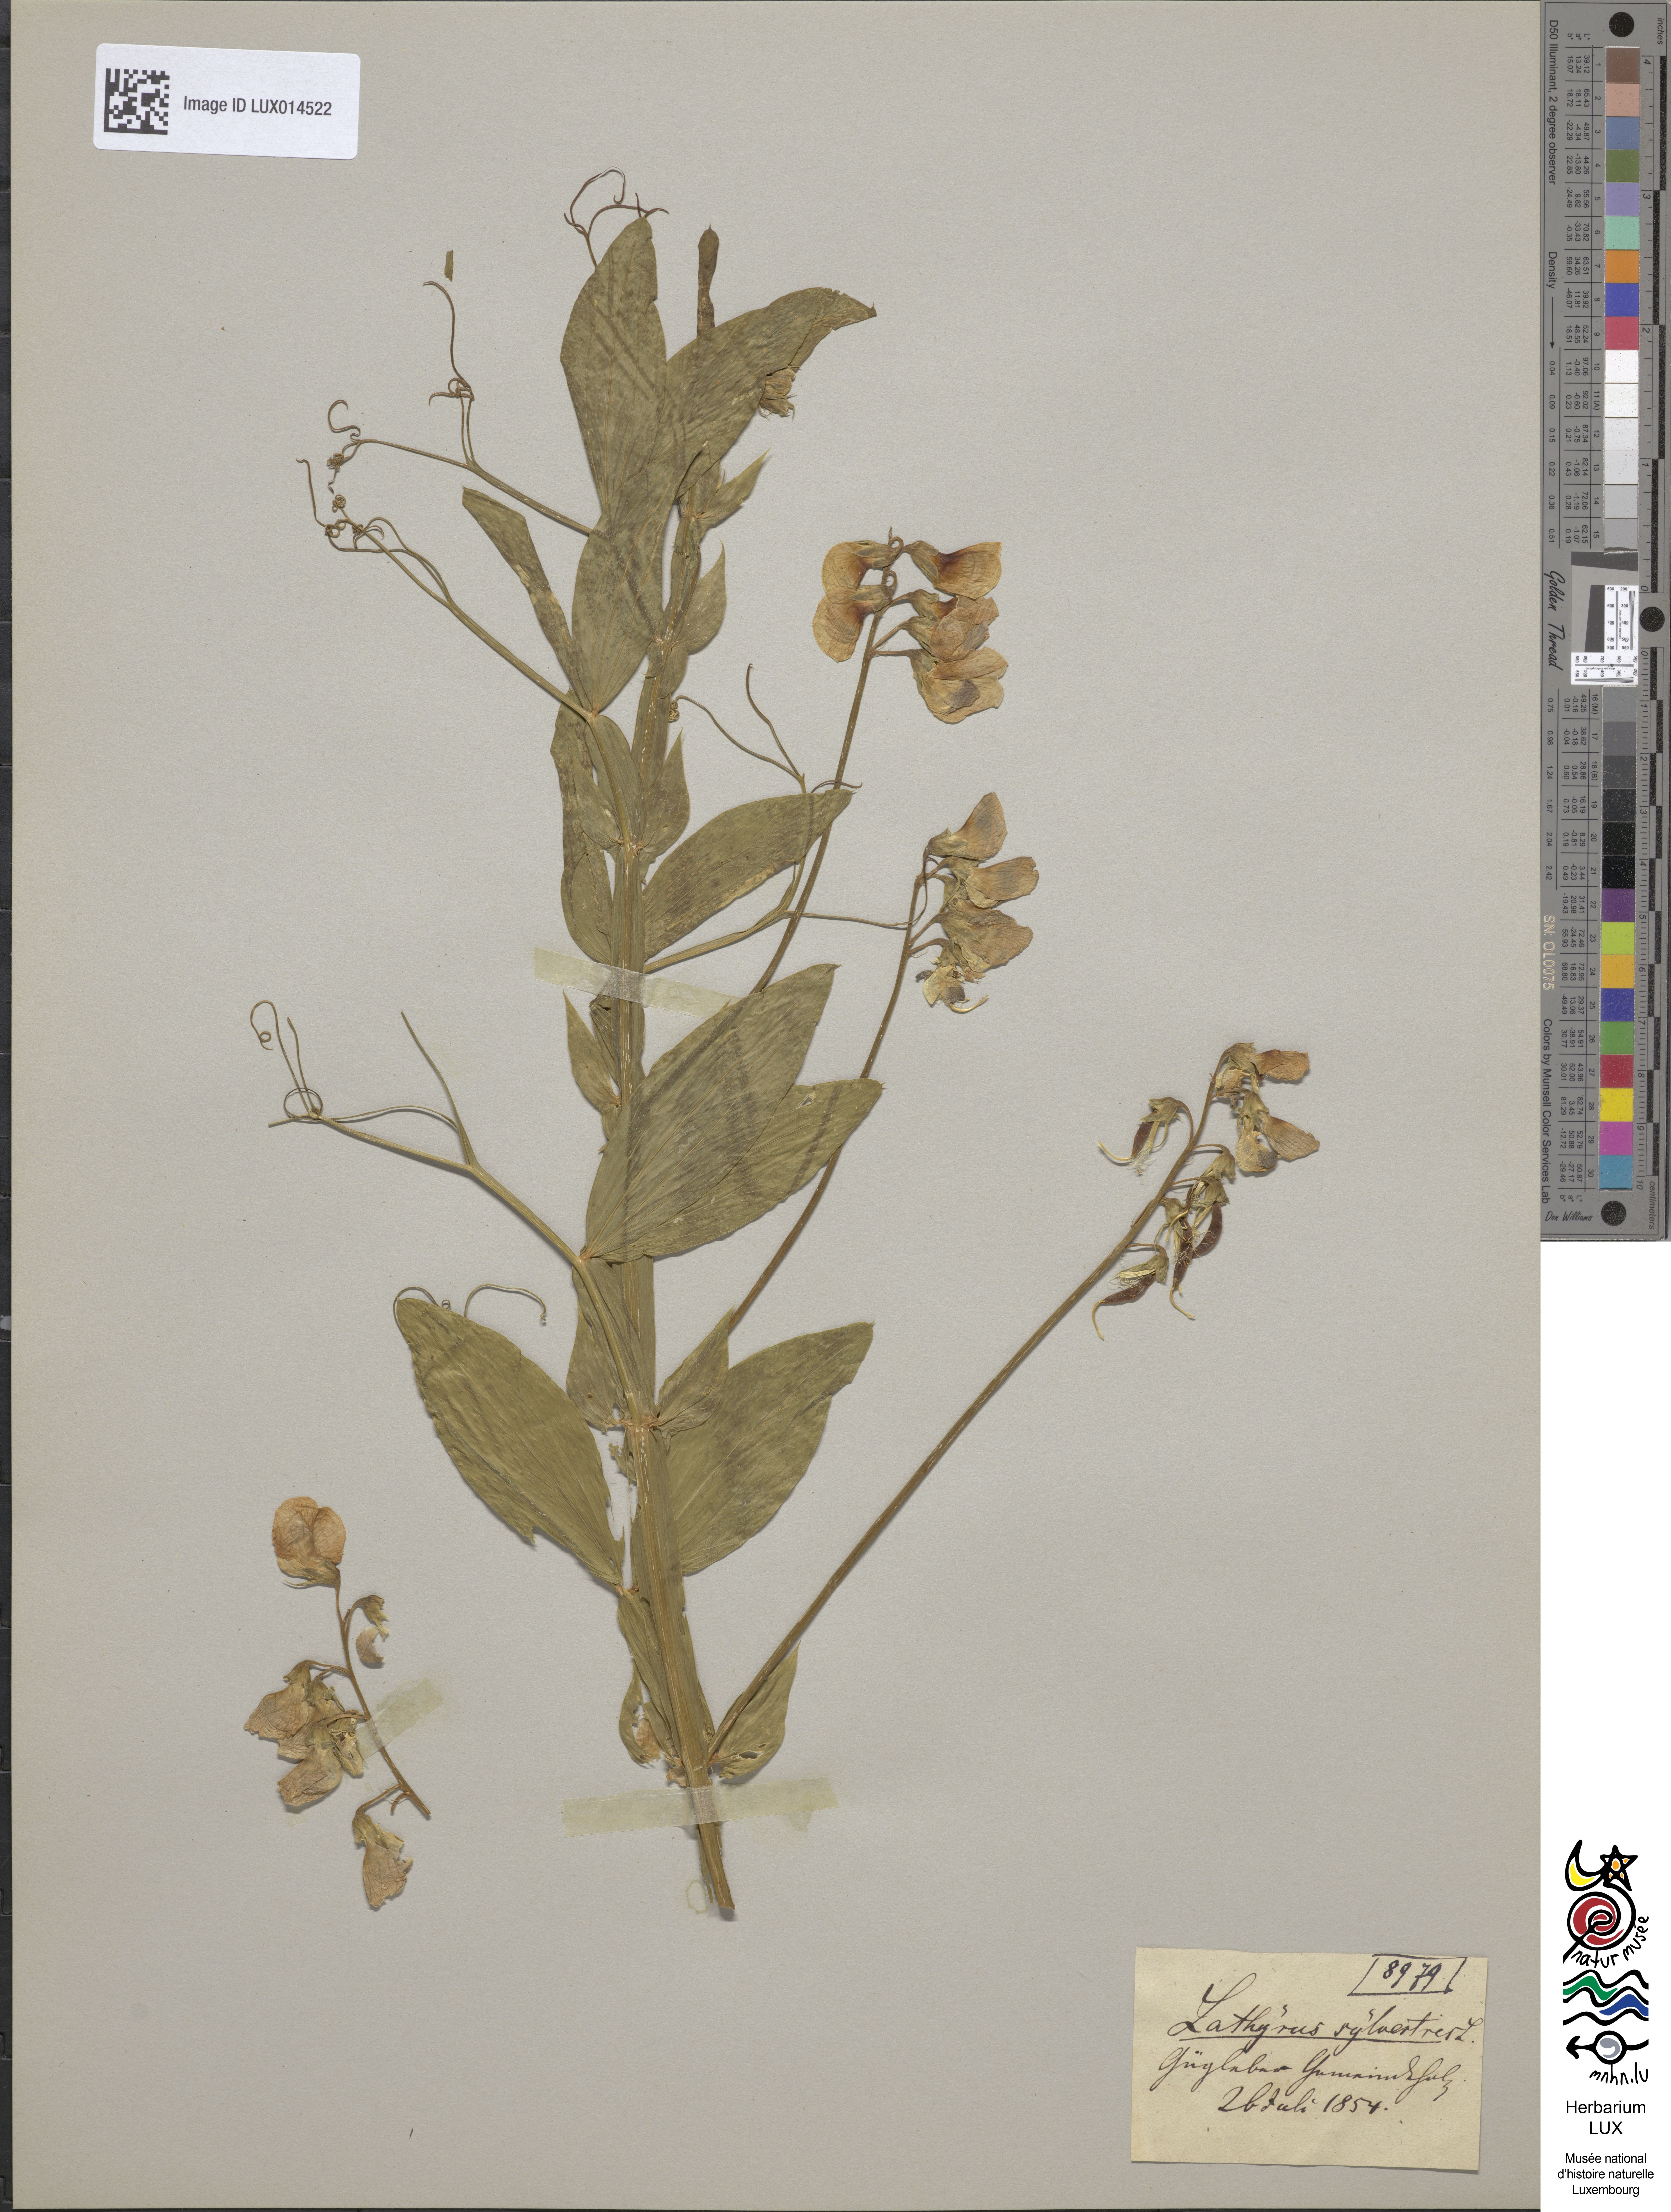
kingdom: Plantae
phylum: Tracheophyta
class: Magnoliopsida
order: Fabales
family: Fabaceae
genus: Lathyrus
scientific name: Lathyrus sylvestris
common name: Flat pea
